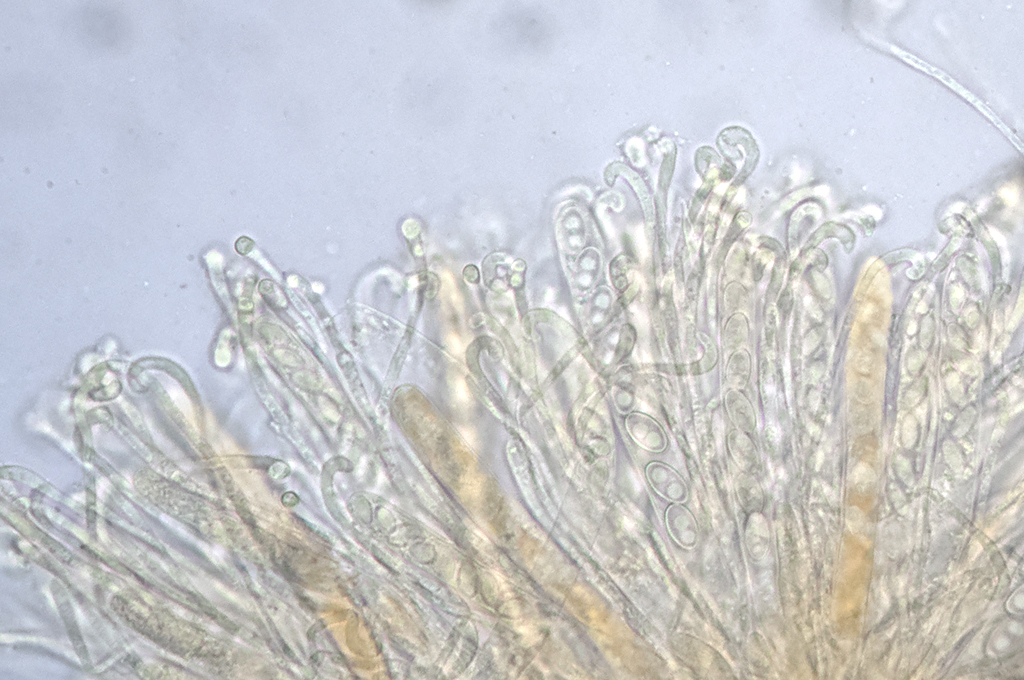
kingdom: Fungi
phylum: Ascomycota
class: Pezizomycetes
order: Pezizales
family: Pyronemataceae
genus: Anthracobia
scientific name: Anthracobia uncinata
